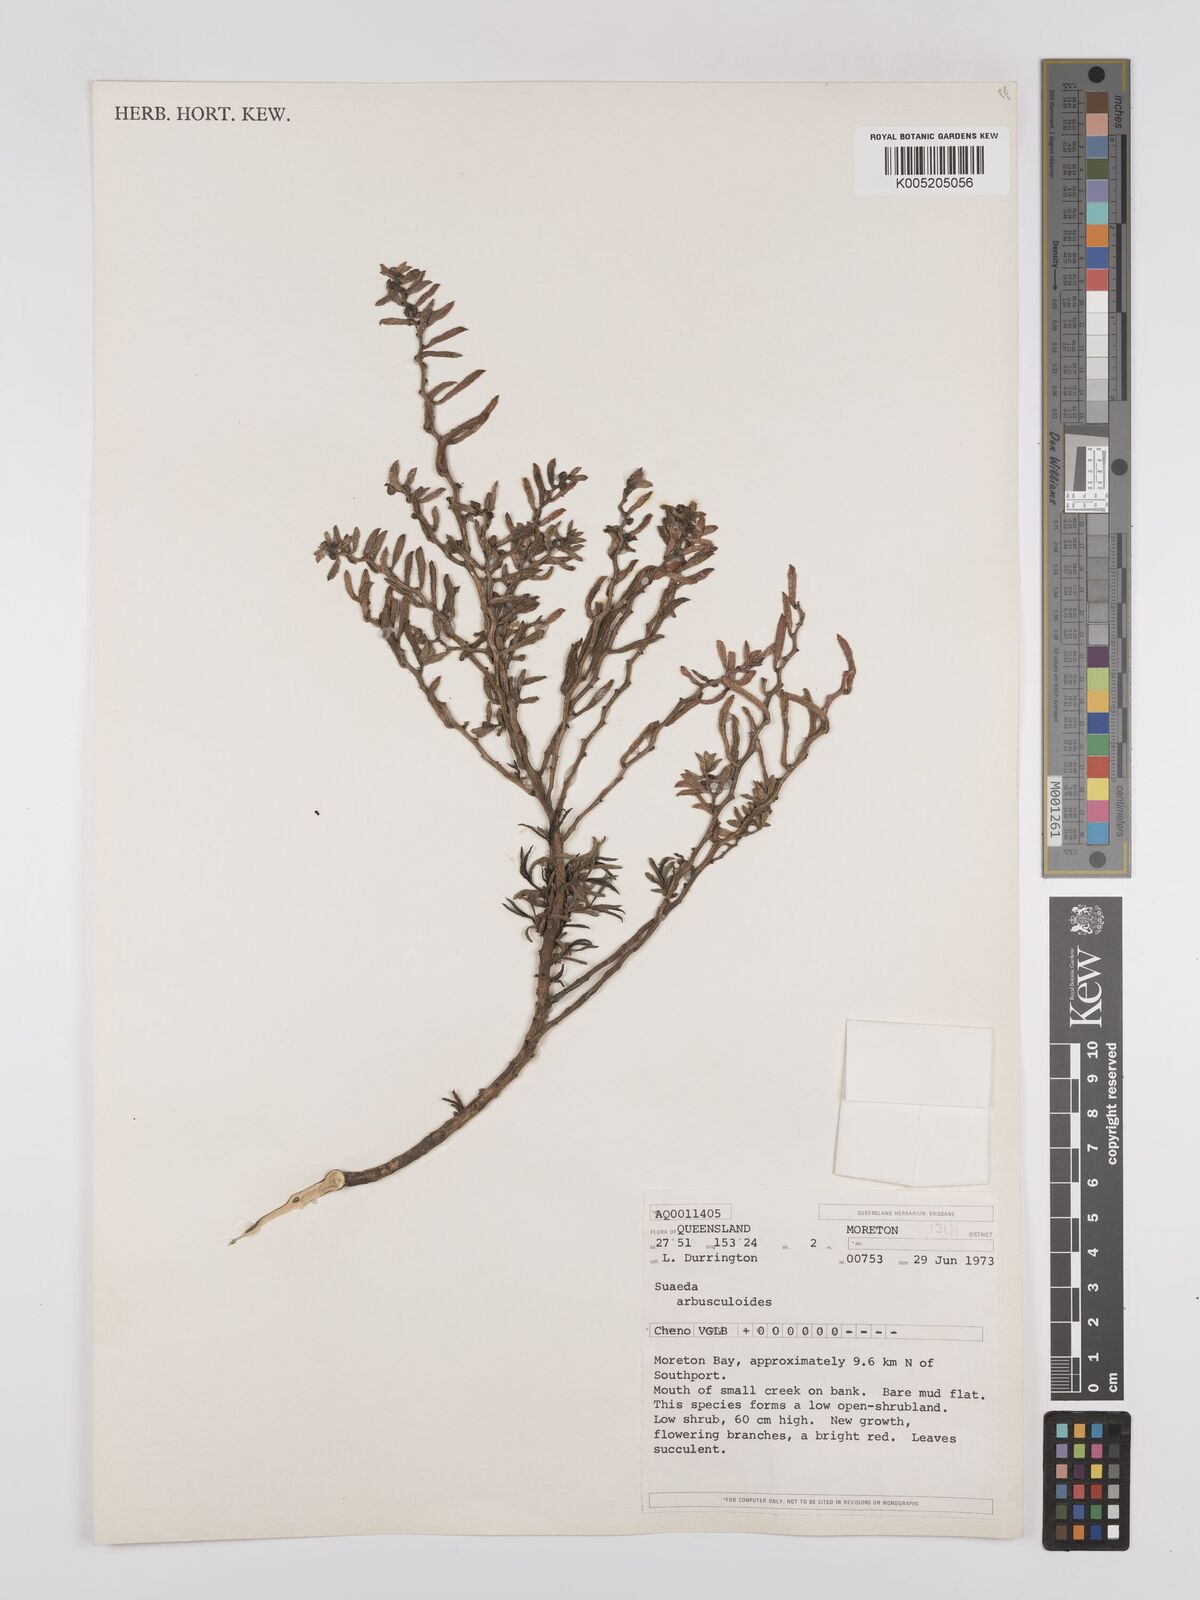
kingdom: Plantae
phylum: Tracheophyta
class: Magnoliopsida
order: Caryophyllales
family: Amaranthaceae
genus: Suaeda
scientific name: Suaeda arbusculoides
